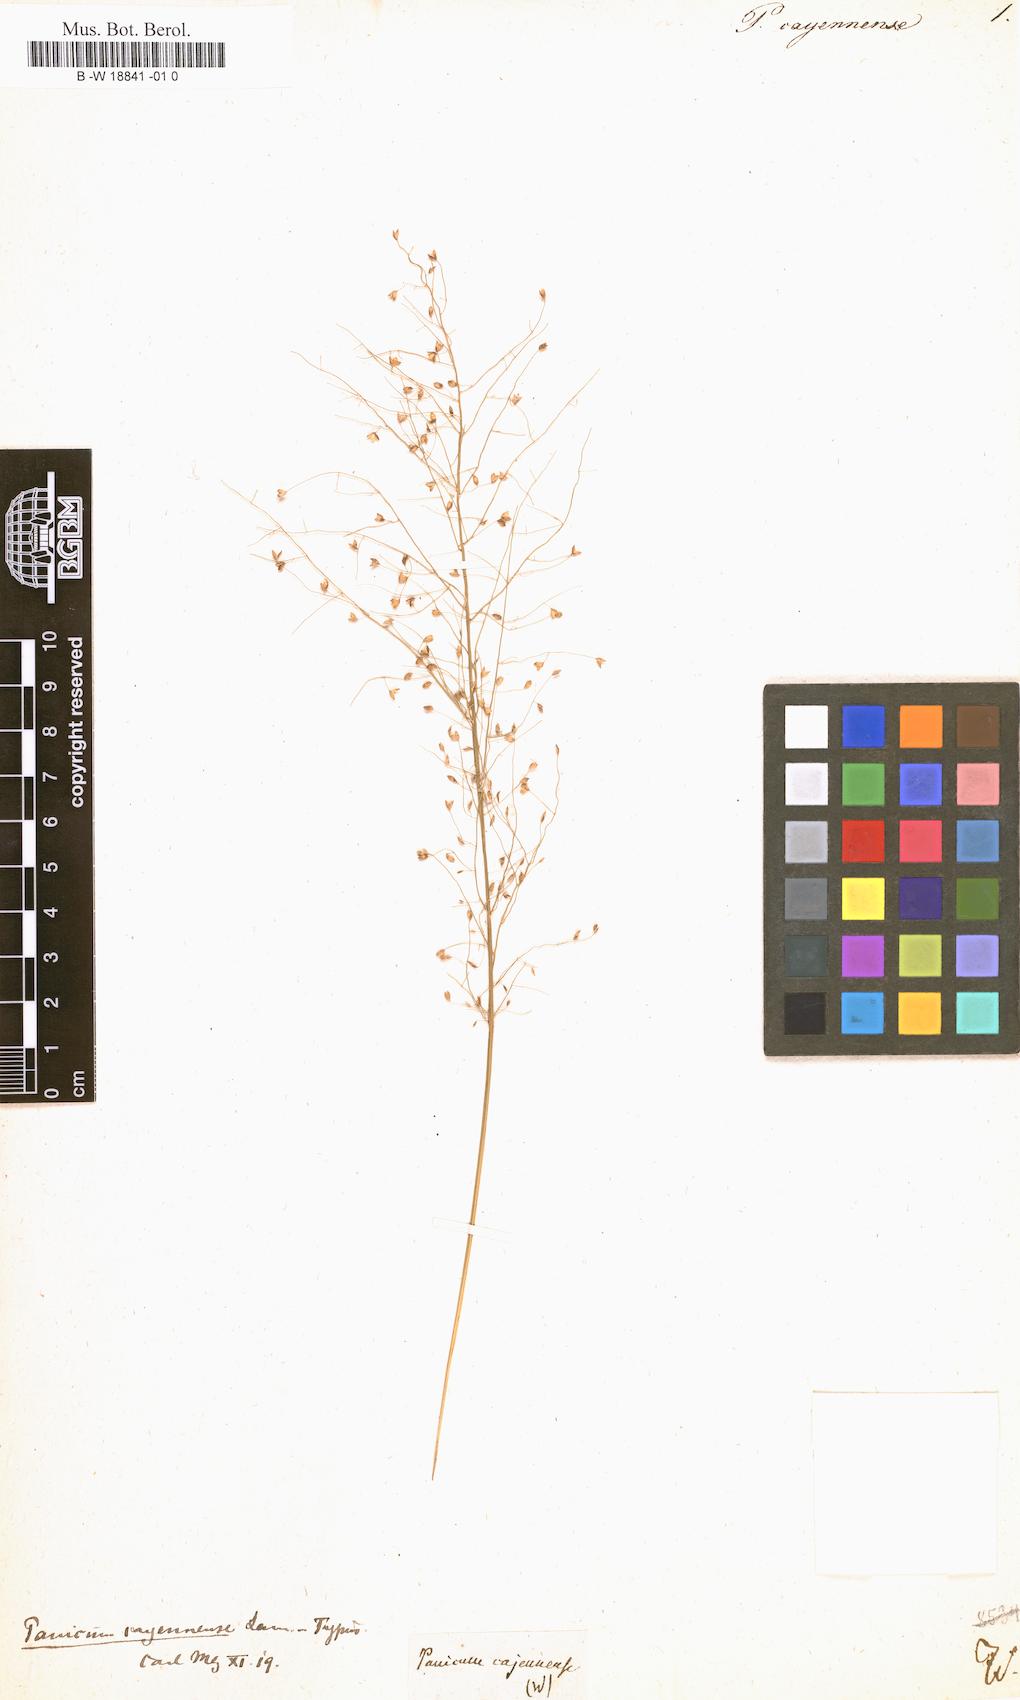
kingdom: Plantae
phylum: Tracheophyta
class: Liliopsida
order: Poales
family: Poaceae
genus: Panicum
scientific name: Panicum cayennense
